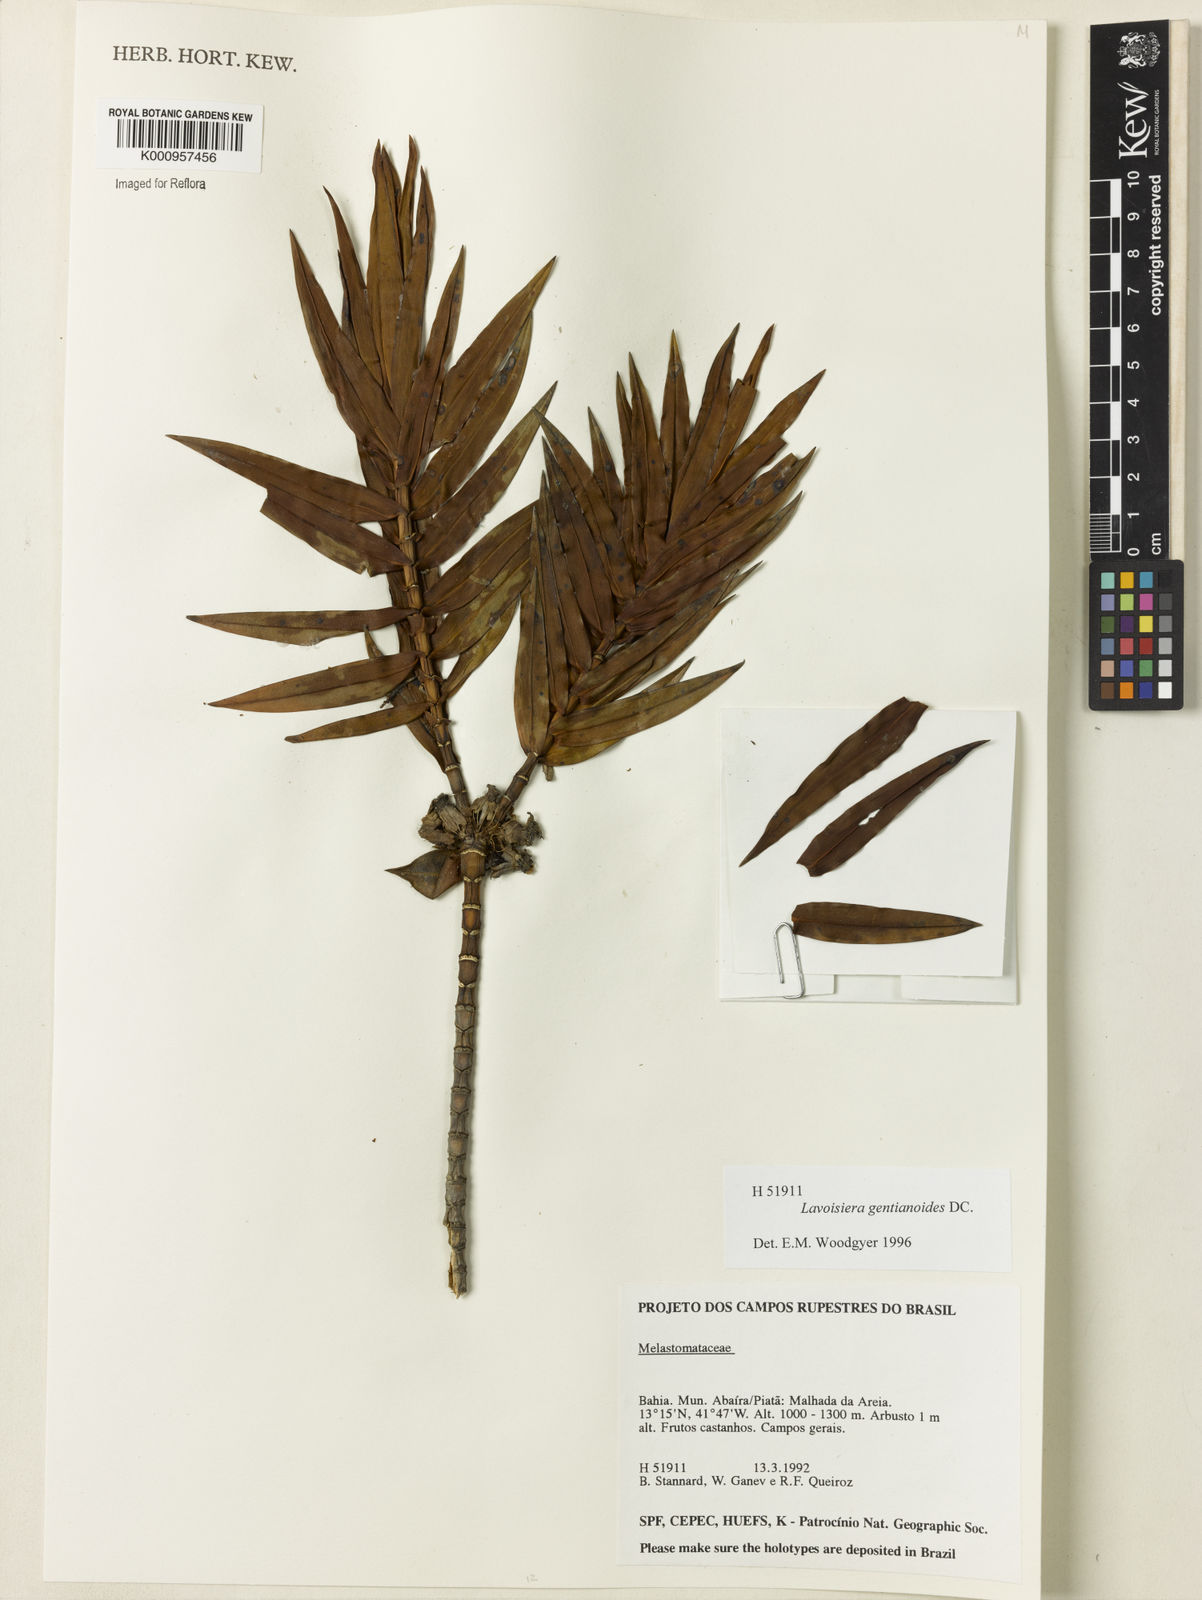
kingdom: Plantae
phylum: Tracheophyta
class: Magnoliopsida
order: Myrtales
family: Melastomataceae
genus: Microlicia
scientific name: Microlicia gentianoides
